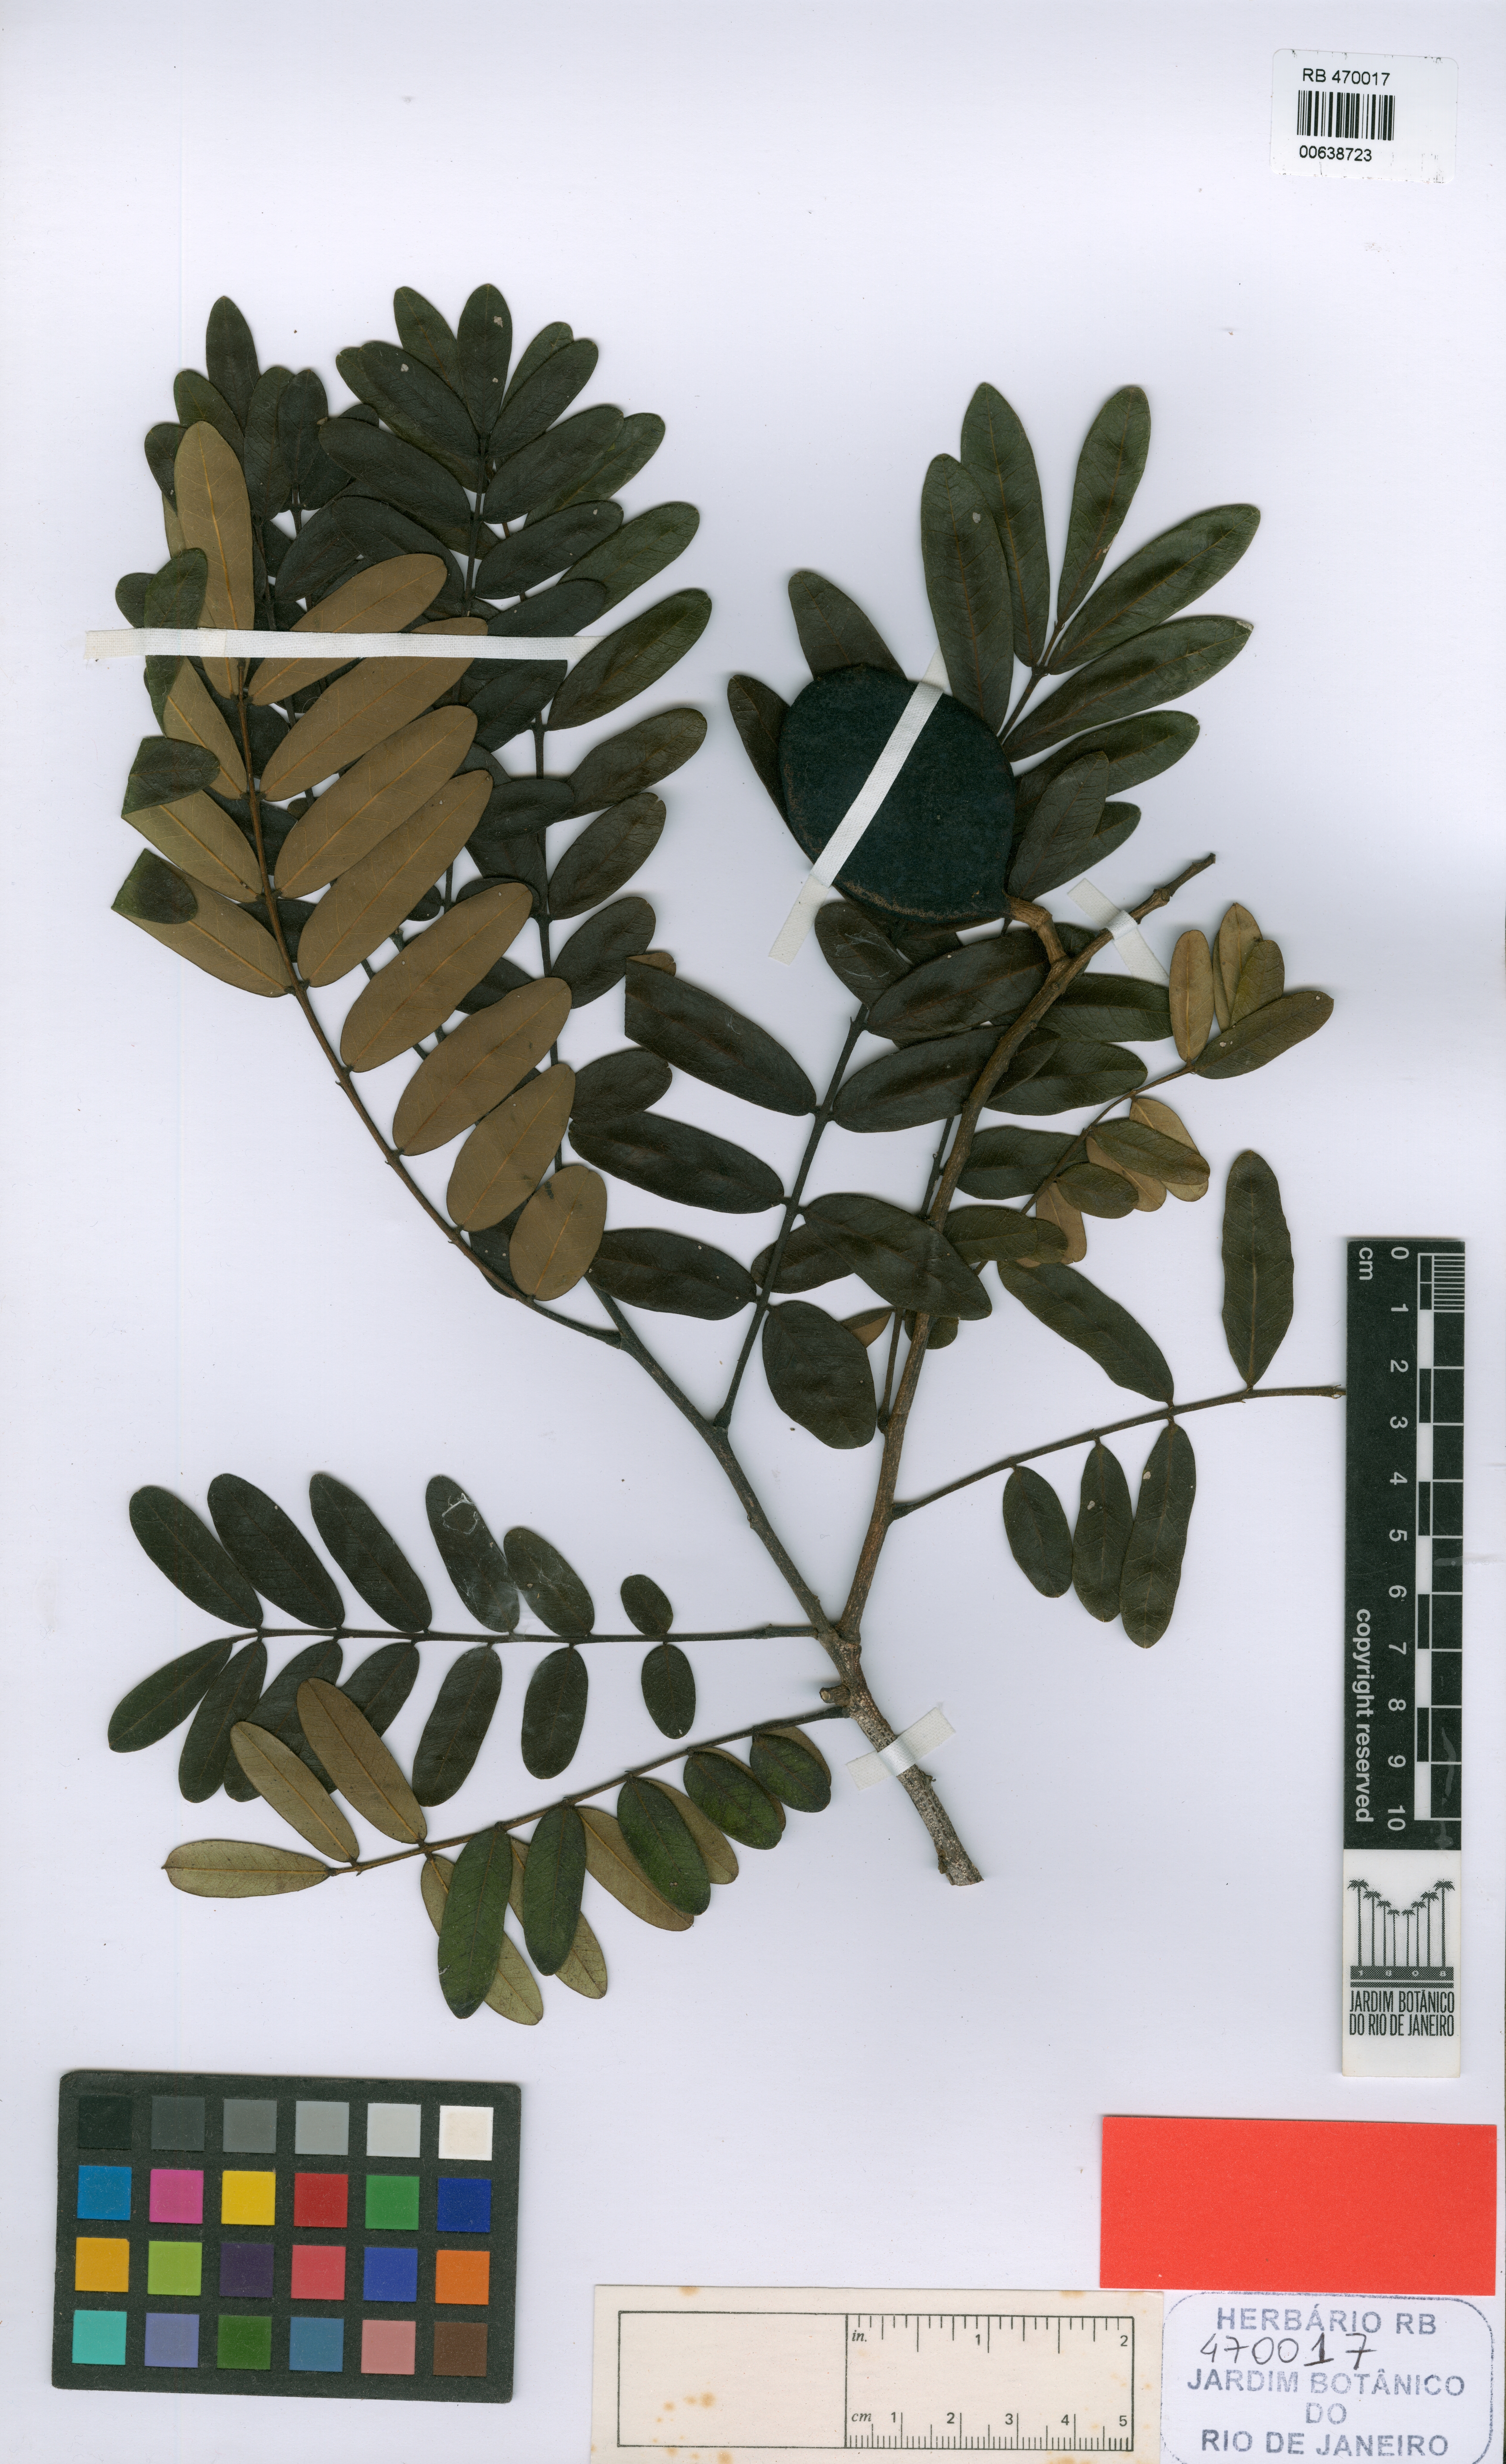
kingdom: Plantae
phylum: Tracheophyta
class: Magnoliopsida
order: Fabales
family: Fabaceae
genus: Swartzia
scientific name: Swartzia alagoensis
